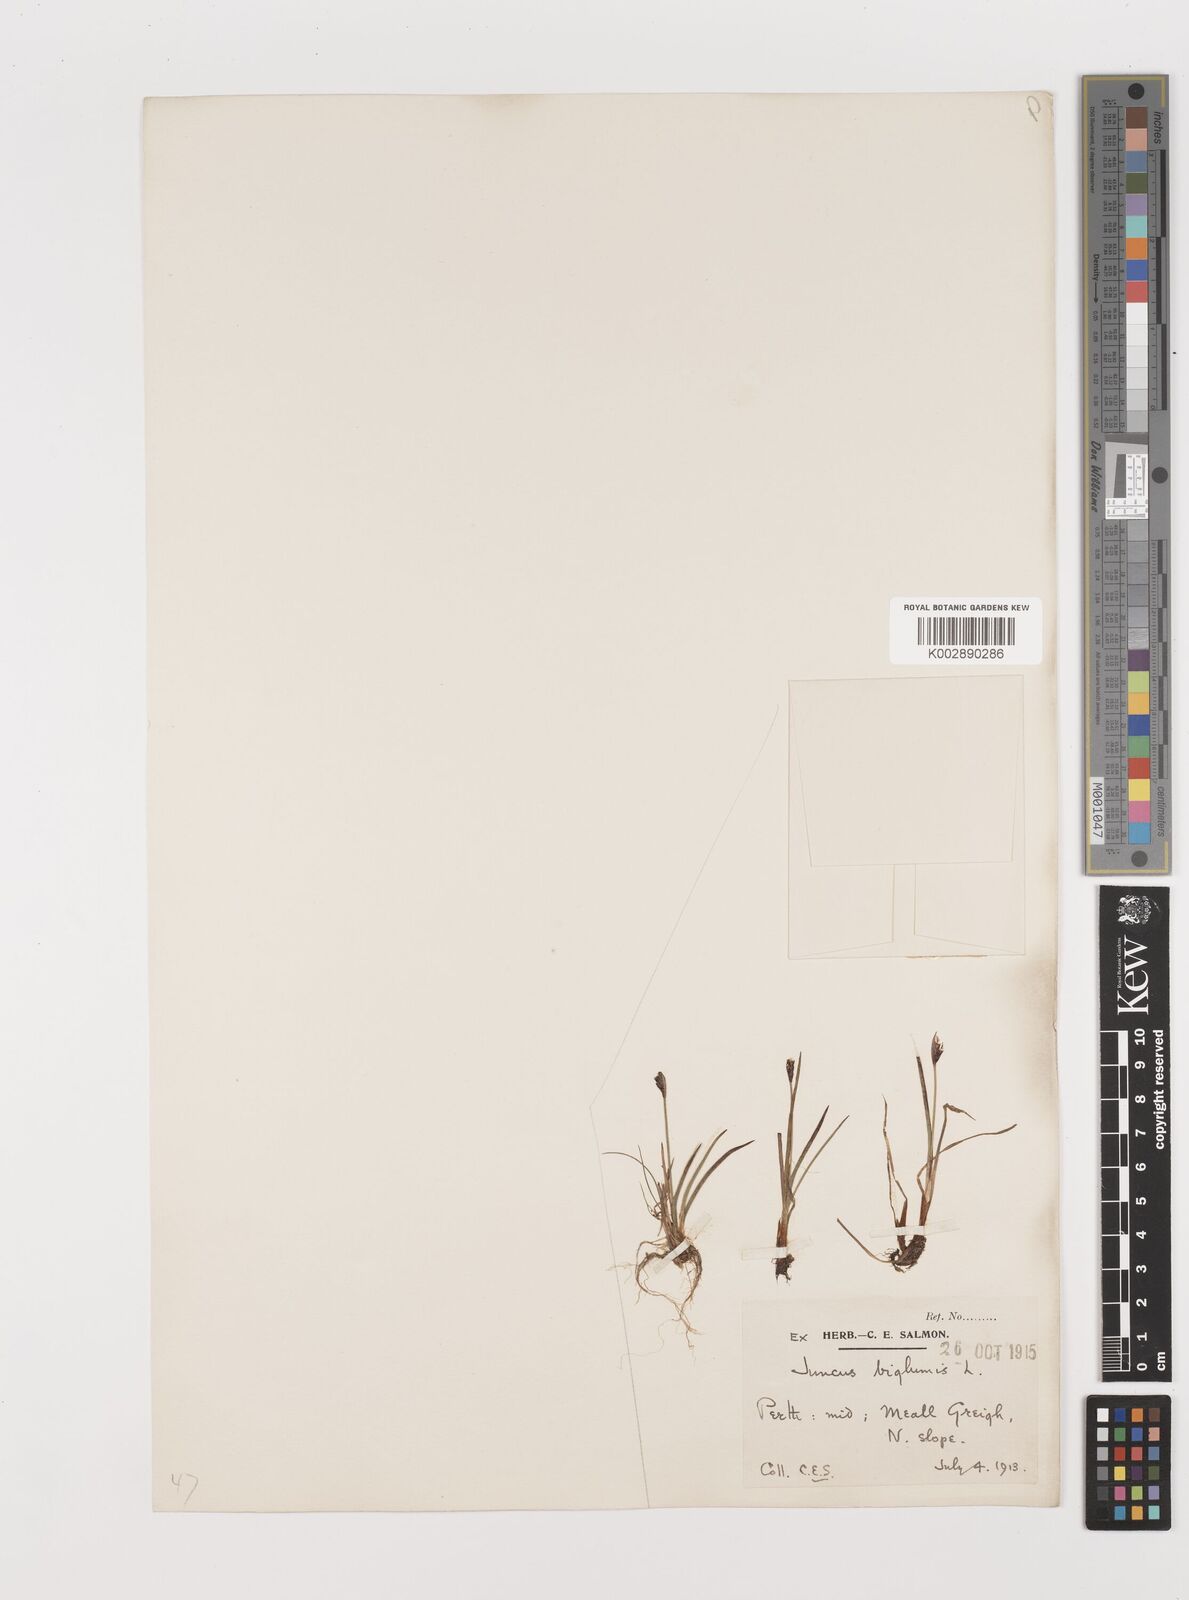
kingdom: Plantae
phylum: Tracheophyta
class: Liliopsida
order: Poales
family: Juncaceae
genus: Juncus
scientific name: Juncus biglumis
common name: Two-flowered rush
